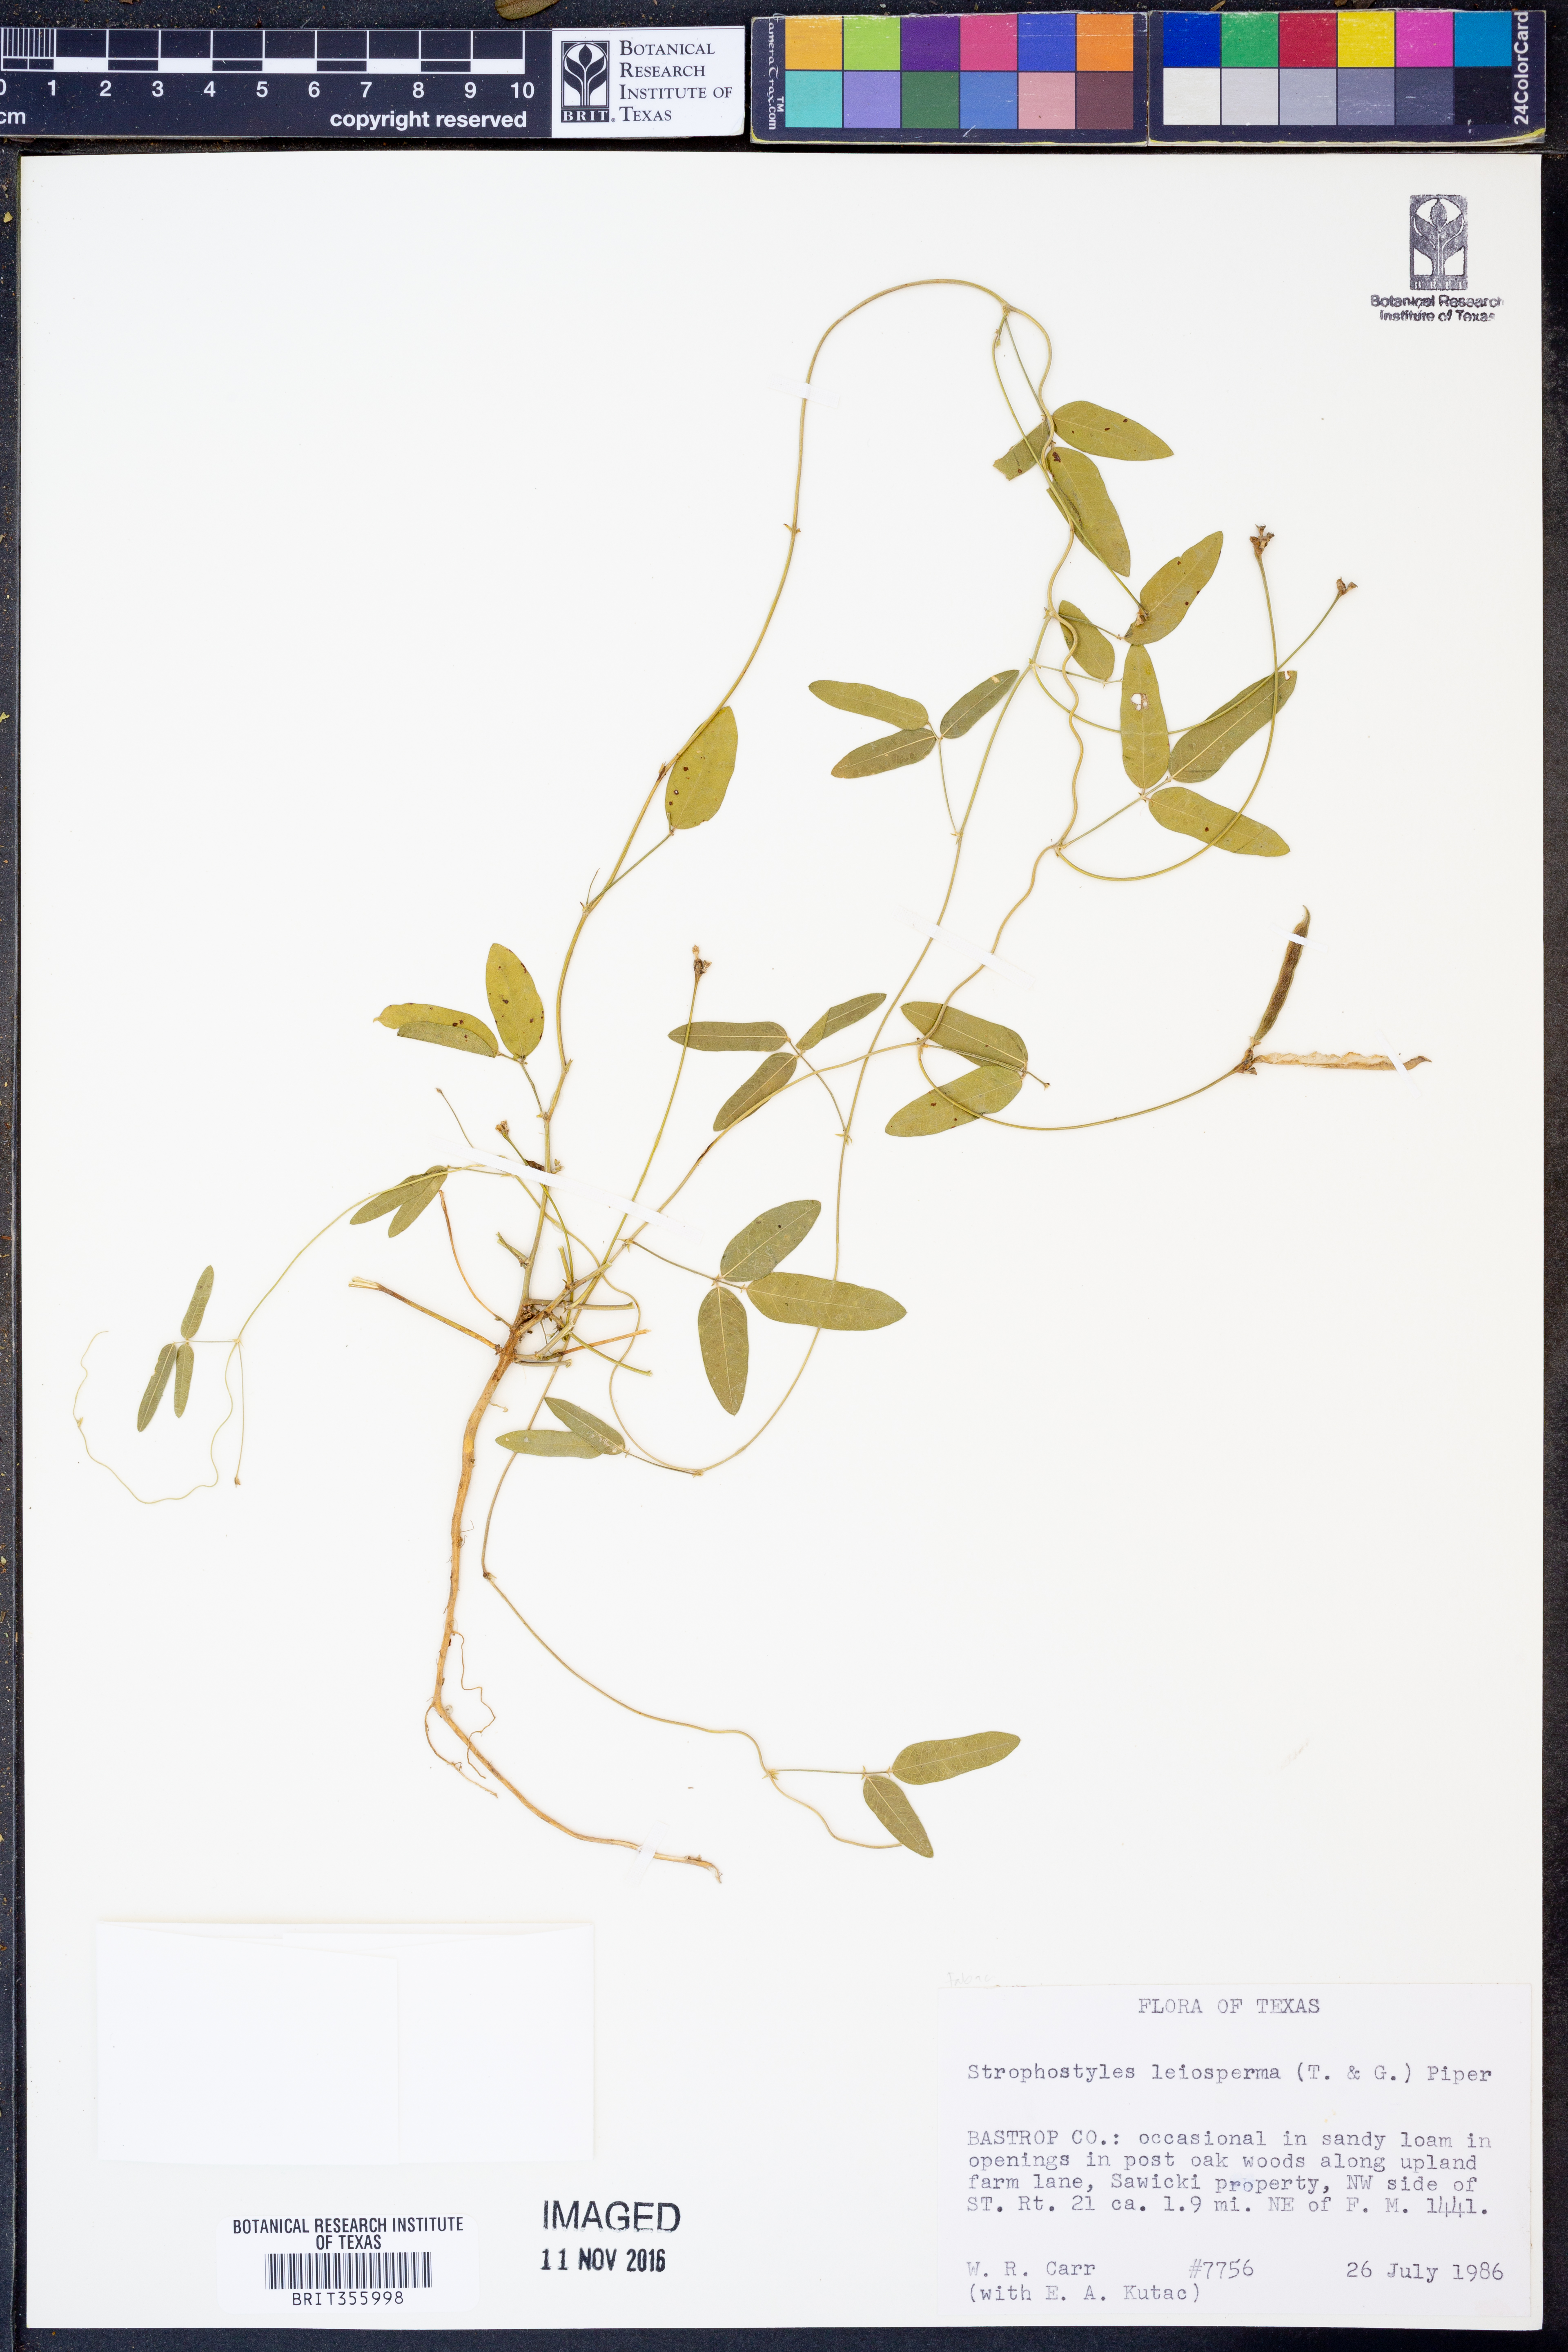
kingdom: Plantae
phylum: Tracheophyta
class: Magnoliopsida
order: Fabales
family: Fabaceae
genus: Strophostyles
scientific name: Strophostyles leiosperma
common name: Smooth-seed wild bean
